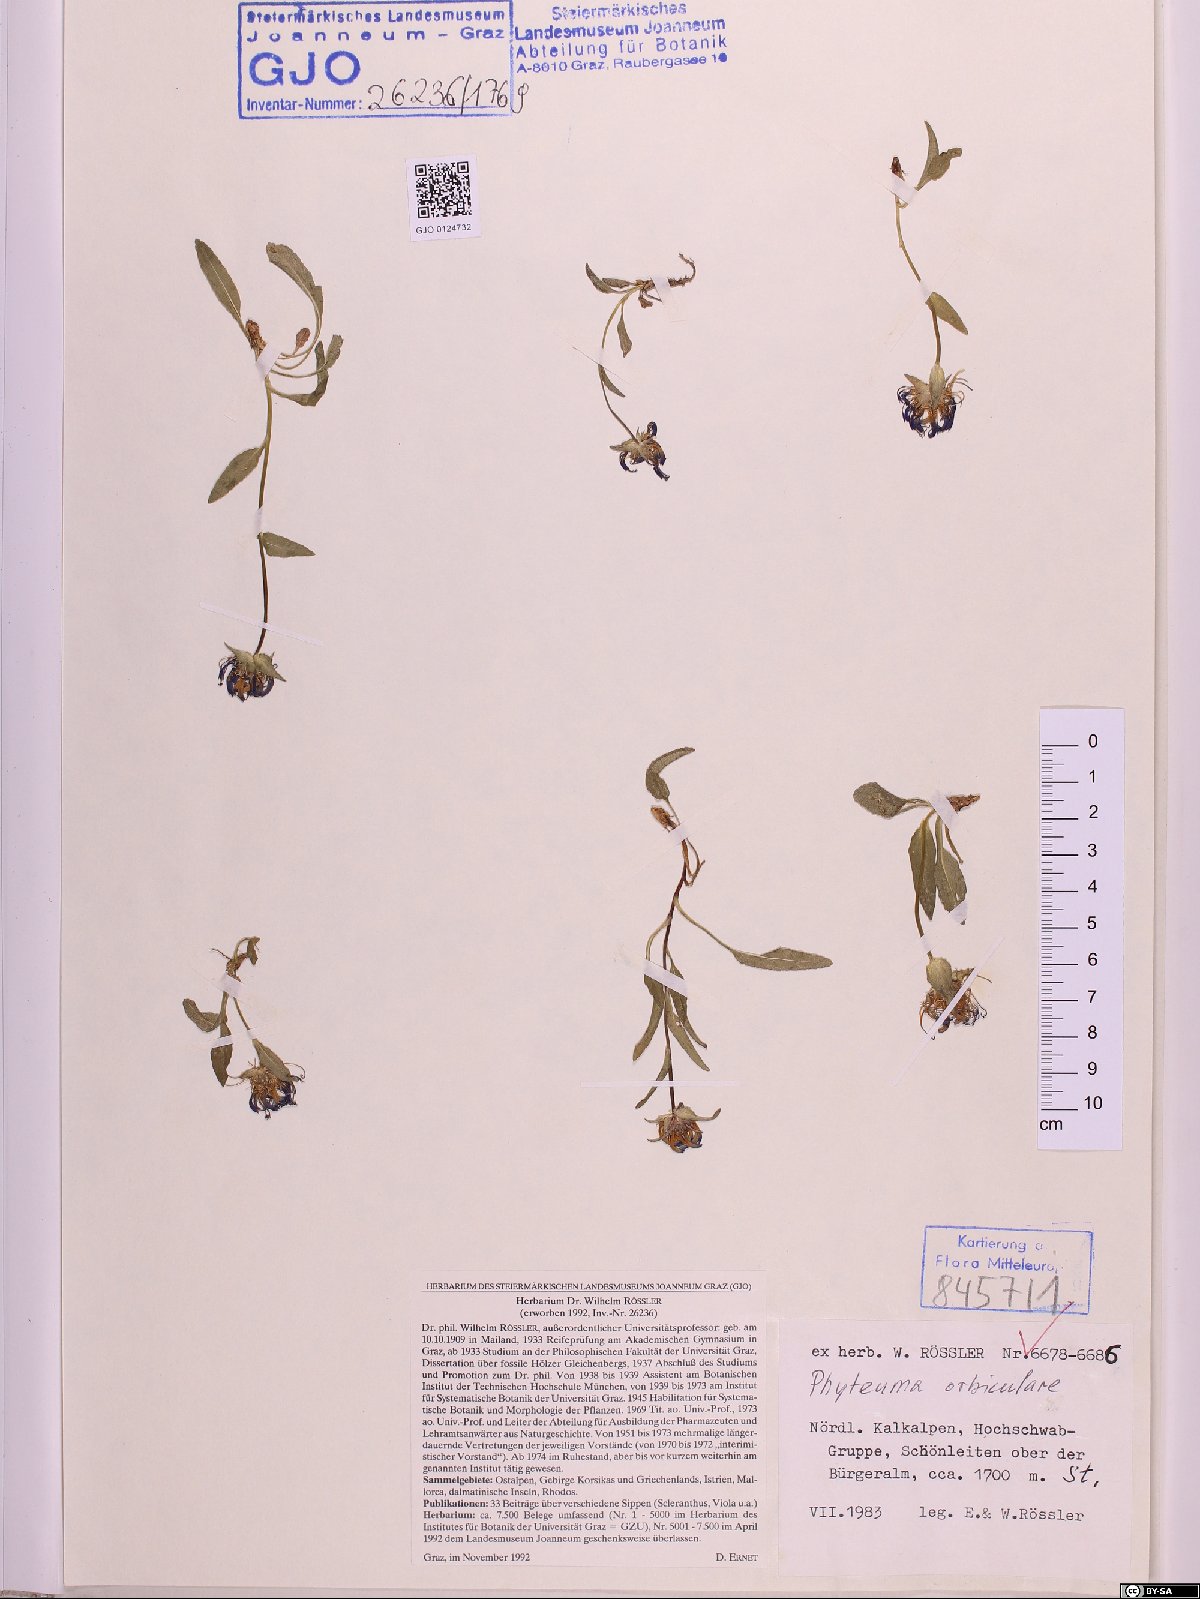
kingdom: Plantae
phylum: Tracheophyta
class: Magnoliopsida
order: Asterales
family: Campanulaceae
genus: Phyteuma
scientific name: Phyteuma orbiculare
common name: Round-headed rampion
